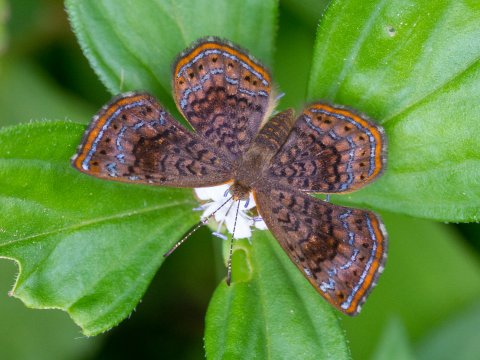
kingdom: Animalia
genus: Calephelis
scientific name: Calephelis
